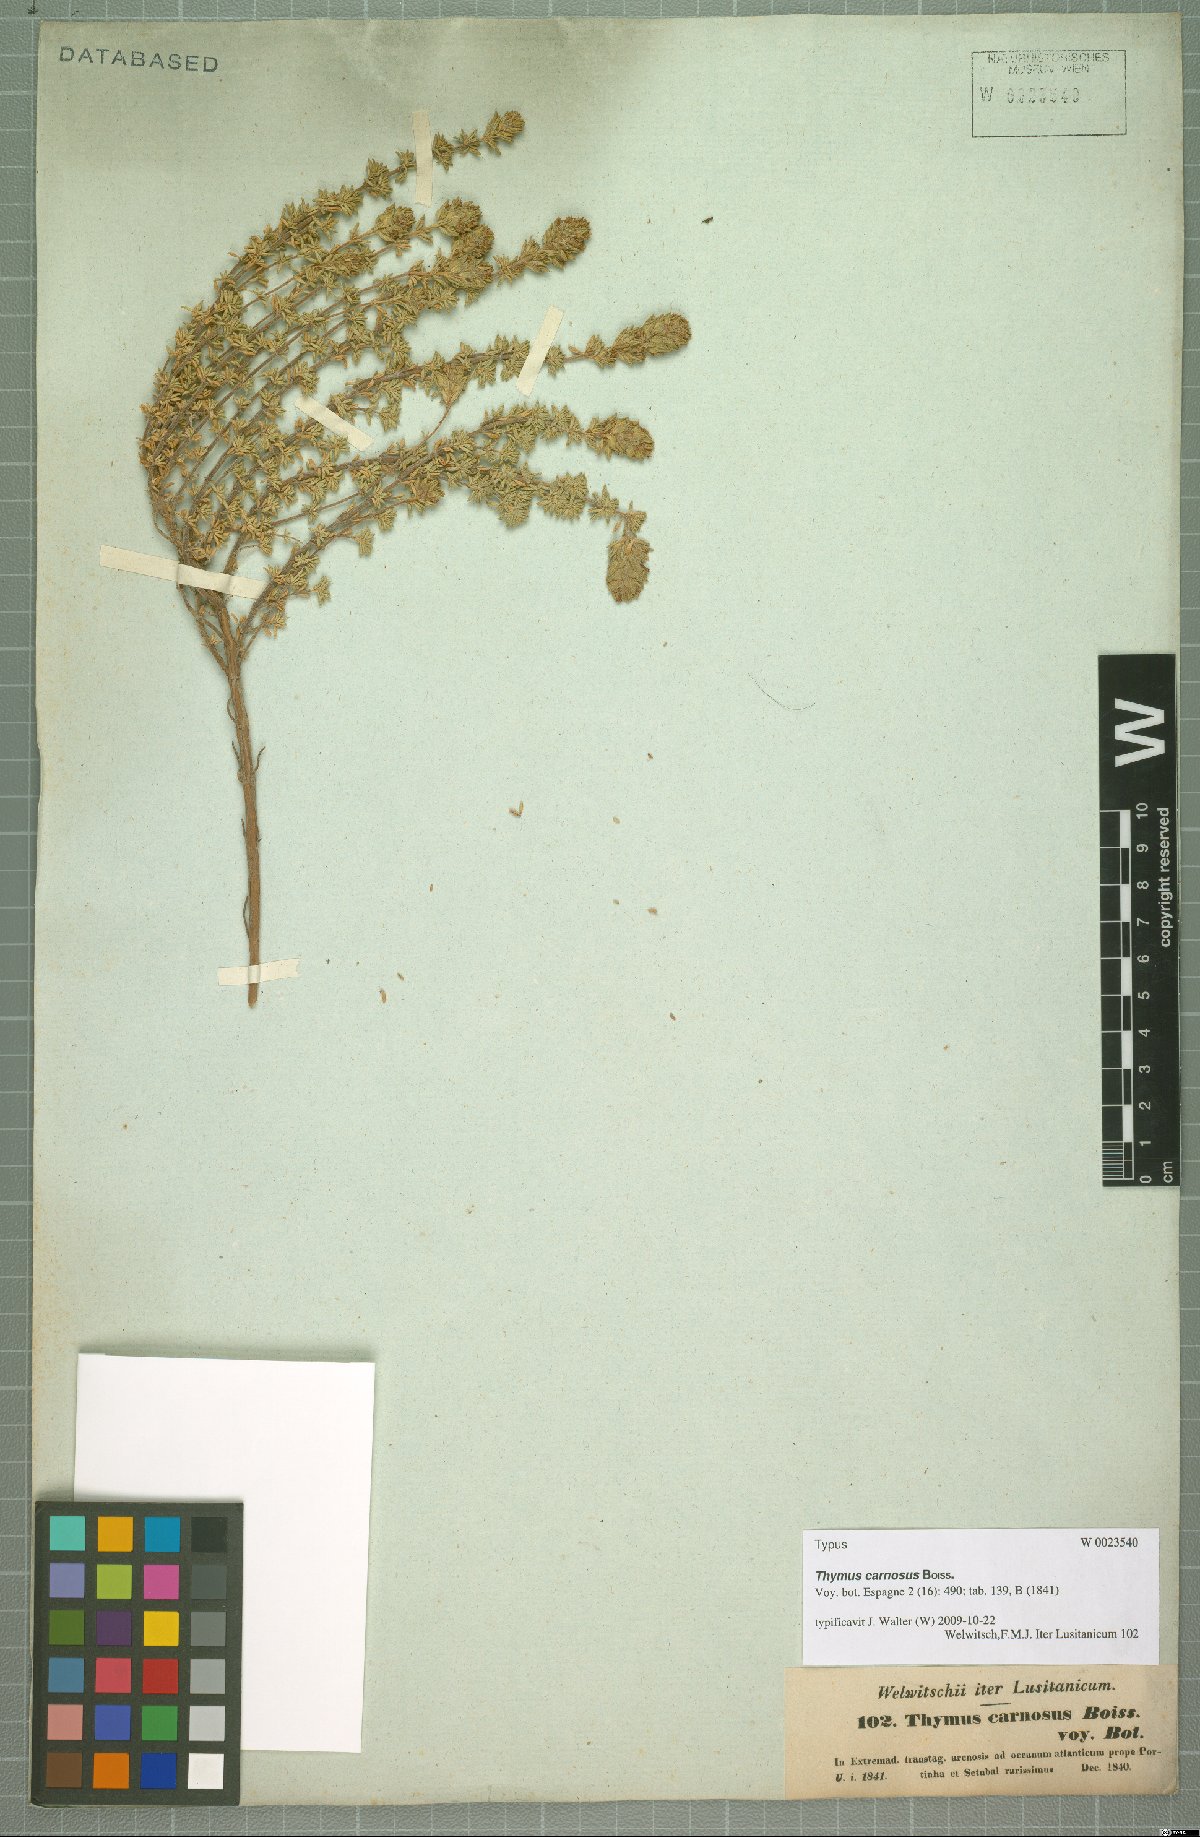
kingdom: Plantae
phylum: Tracheophyta
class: Magnoliopsida
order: Lamiales
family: Lamiaceae
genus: Thymus
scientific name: Thymus carnosus
